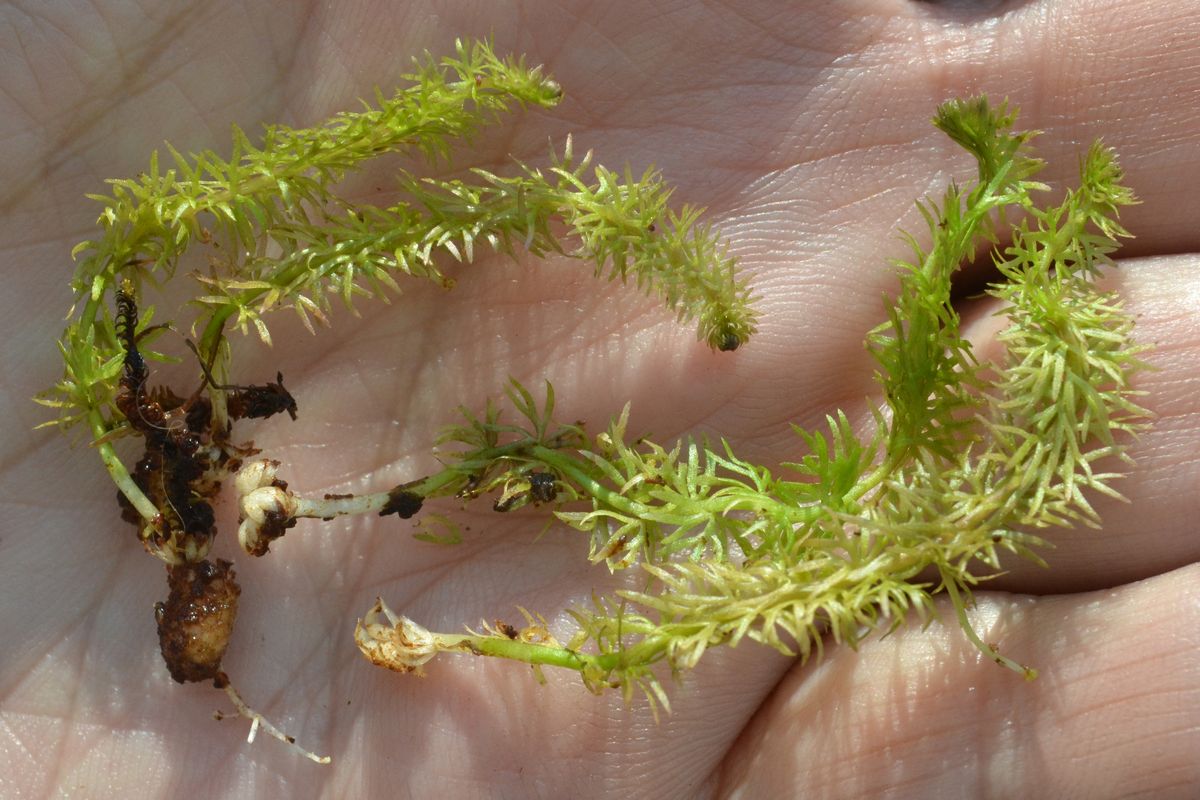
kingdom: Plantae
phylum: Tracheophyta
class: Magnoliopsida
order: Lamiales
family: Lentibulariaceae
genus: Utricularia
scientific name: Utricularia intermedia
